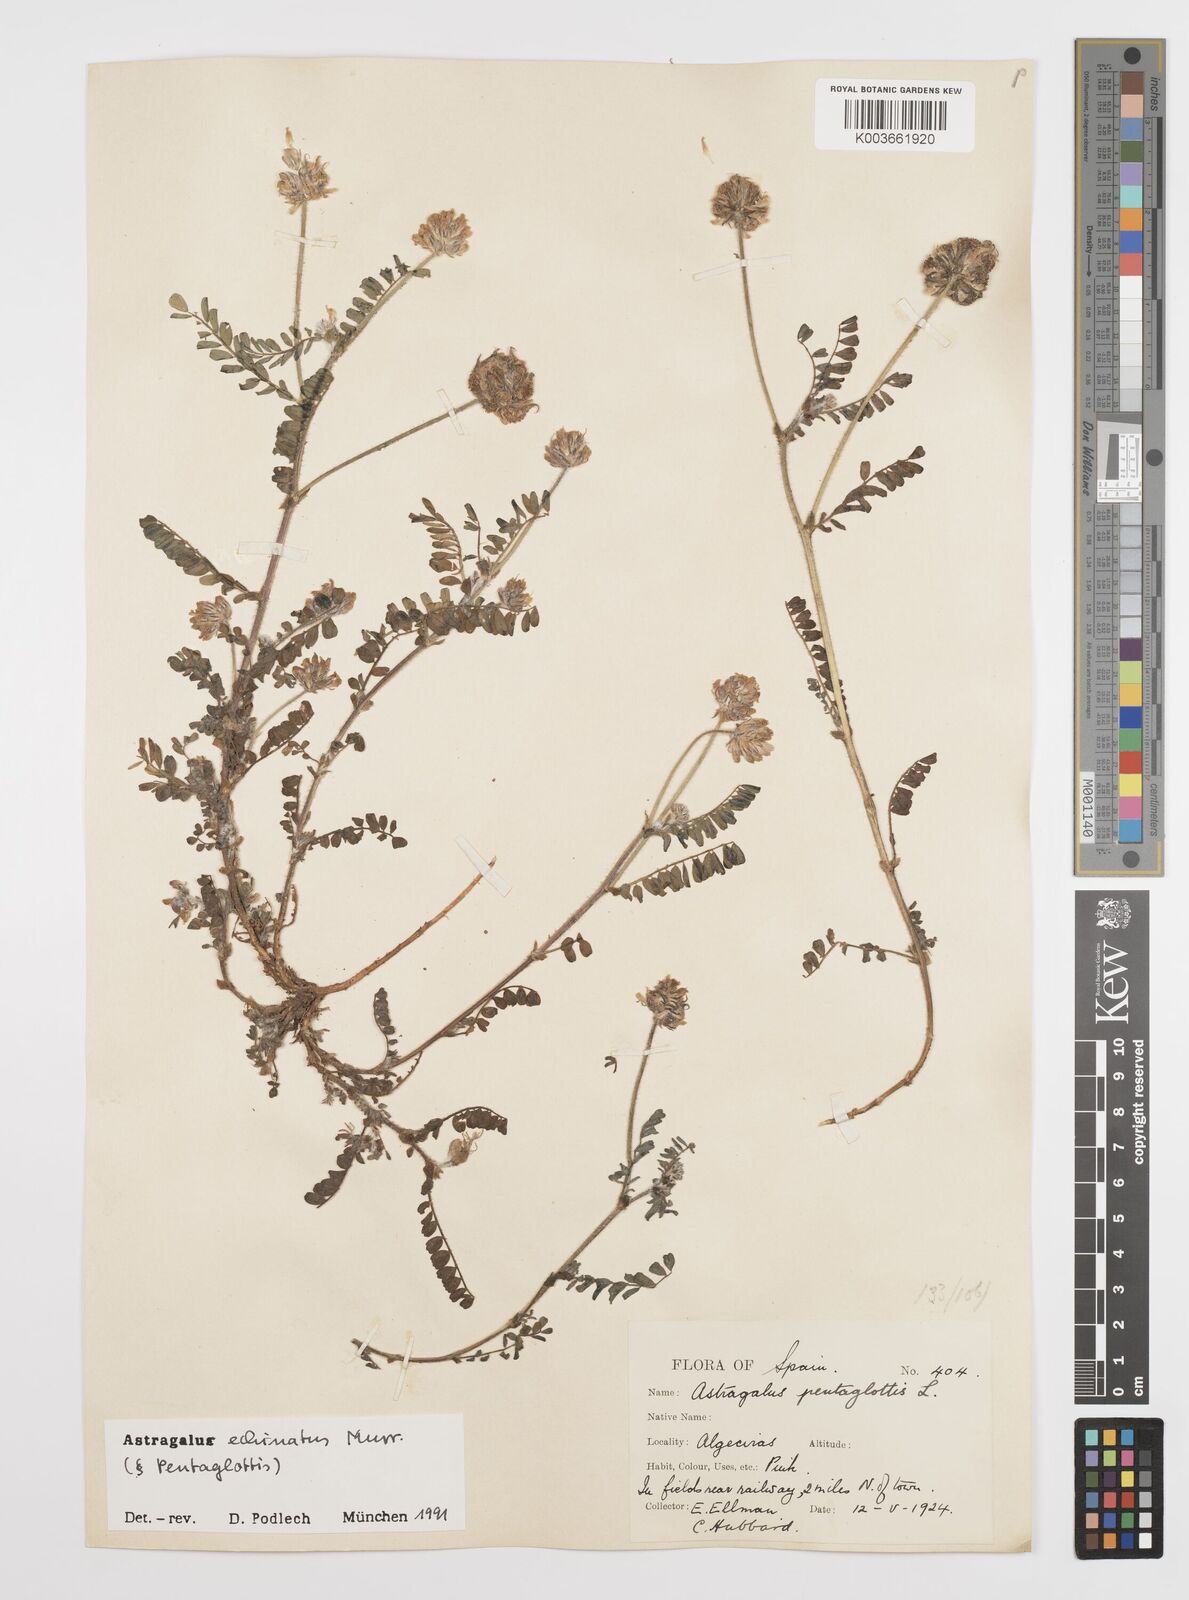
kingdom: Plantae
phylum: Tracheophyta
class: Magnoliopsida
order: Fabales
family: Fabaceae
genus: Astragalus
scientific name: Astragalus echinatus
